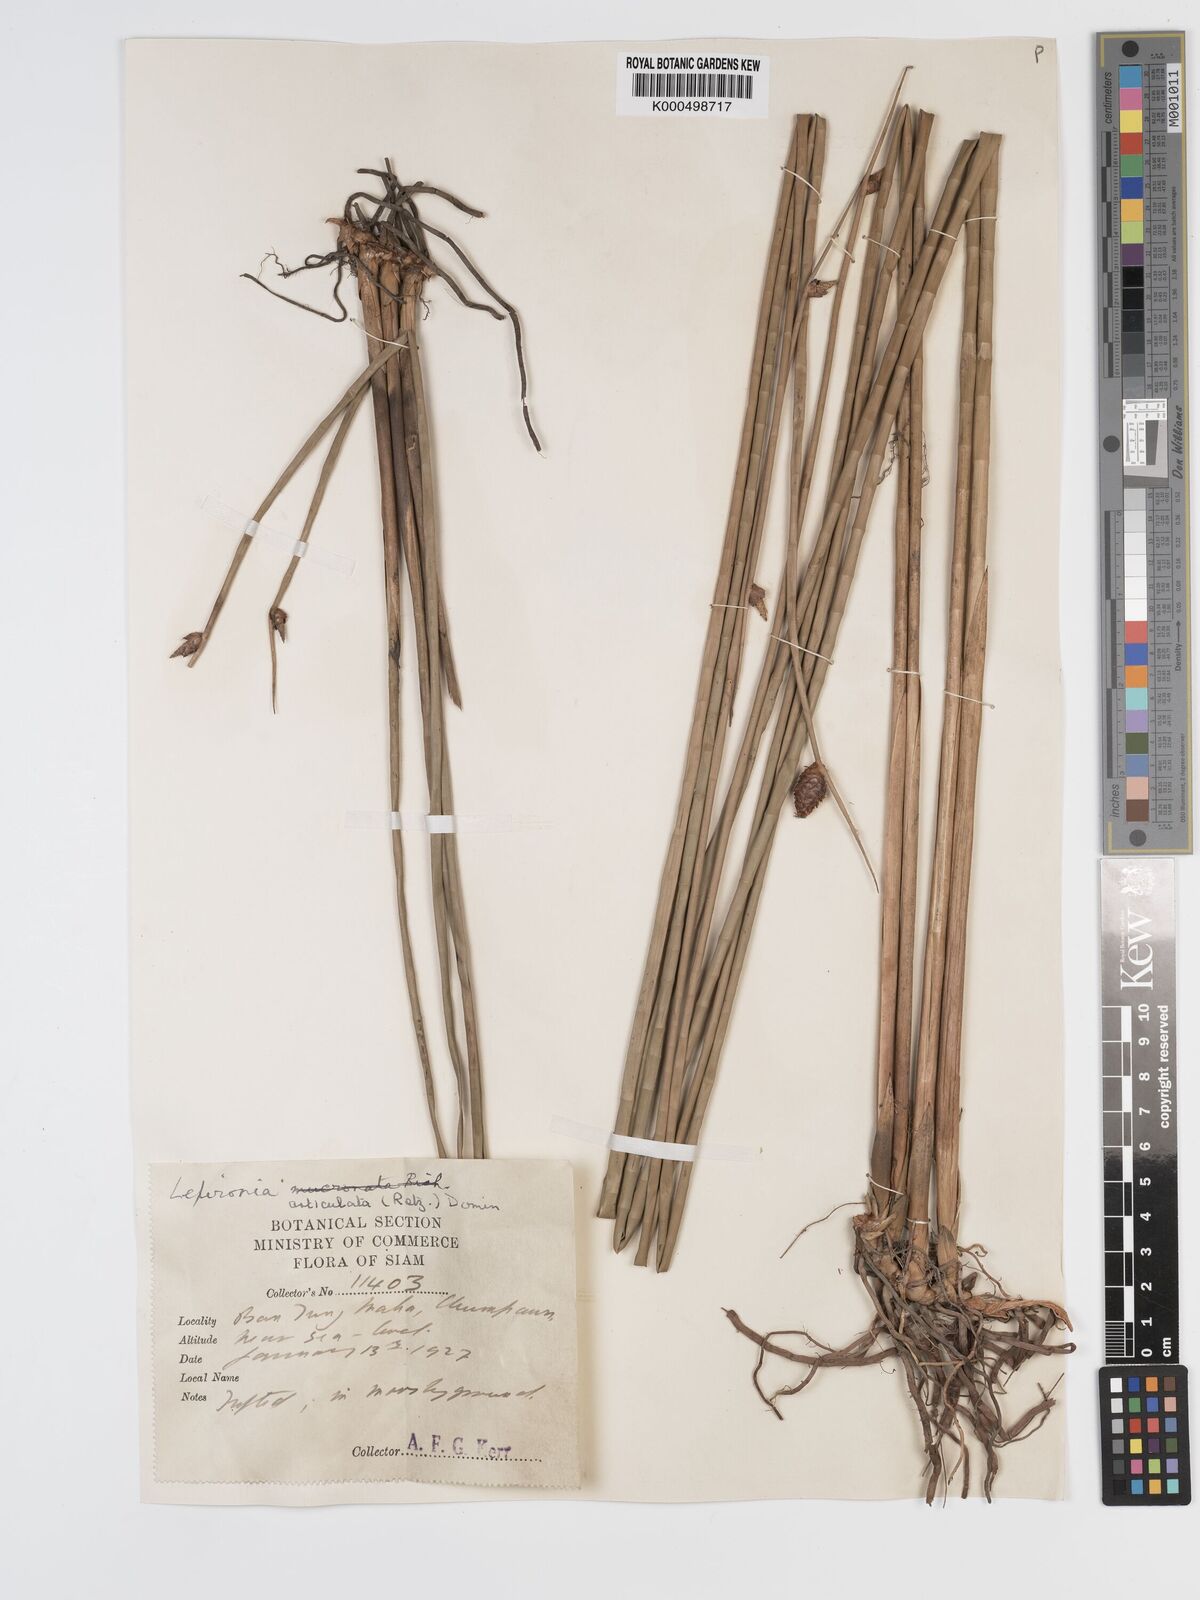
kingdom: Plantae
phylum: Tracheophyta
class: Liliopsida
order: Poales
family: Cyperaceae
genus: Lepironia
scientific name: Lepironia articulata
